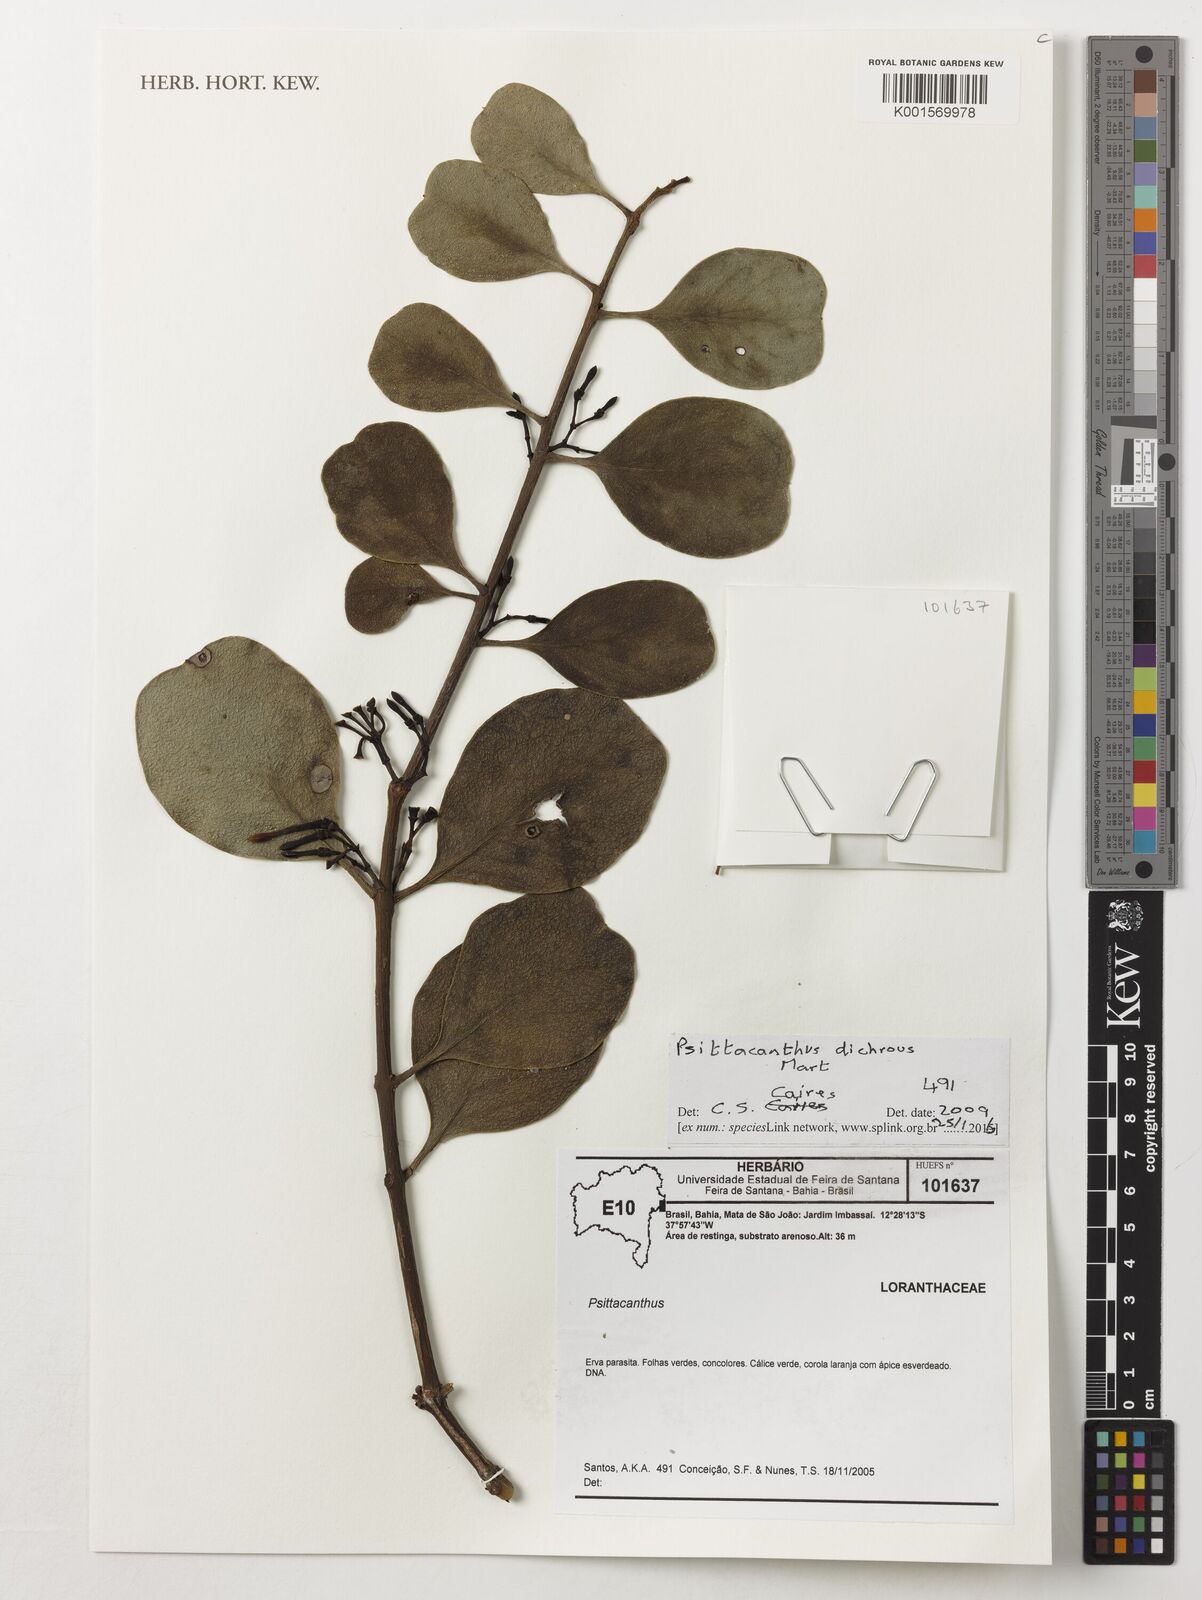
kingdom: Plantae
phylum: Tracheophyta
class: Magnoliopsida
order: Santalales
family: Loranthaceae
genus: Psittacanthus
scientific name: Psittacanthus dichrous
